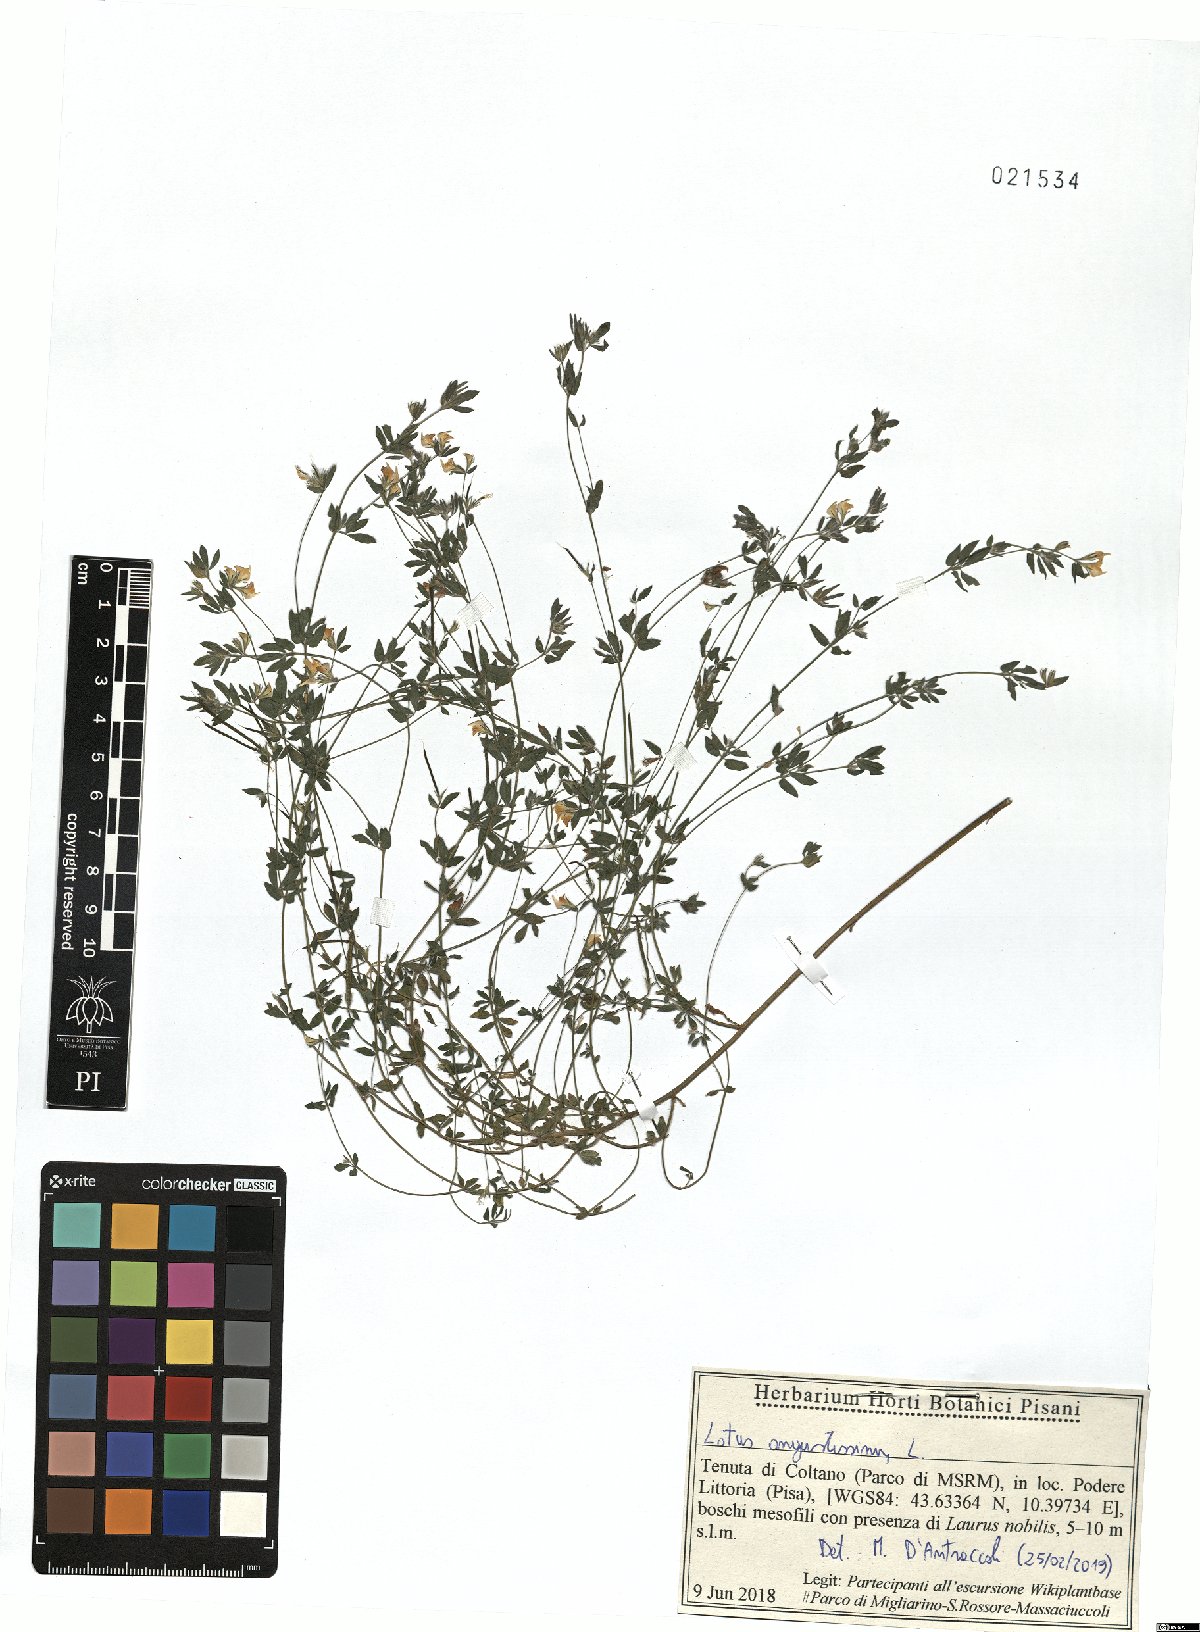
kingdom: Plantae
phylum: Tracheophyta
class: Magnoliopsida
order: Fabales
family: Fabaceae
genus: Lotus
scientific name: Lotus angustissimus
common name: Slender bird's-foot trefoil
